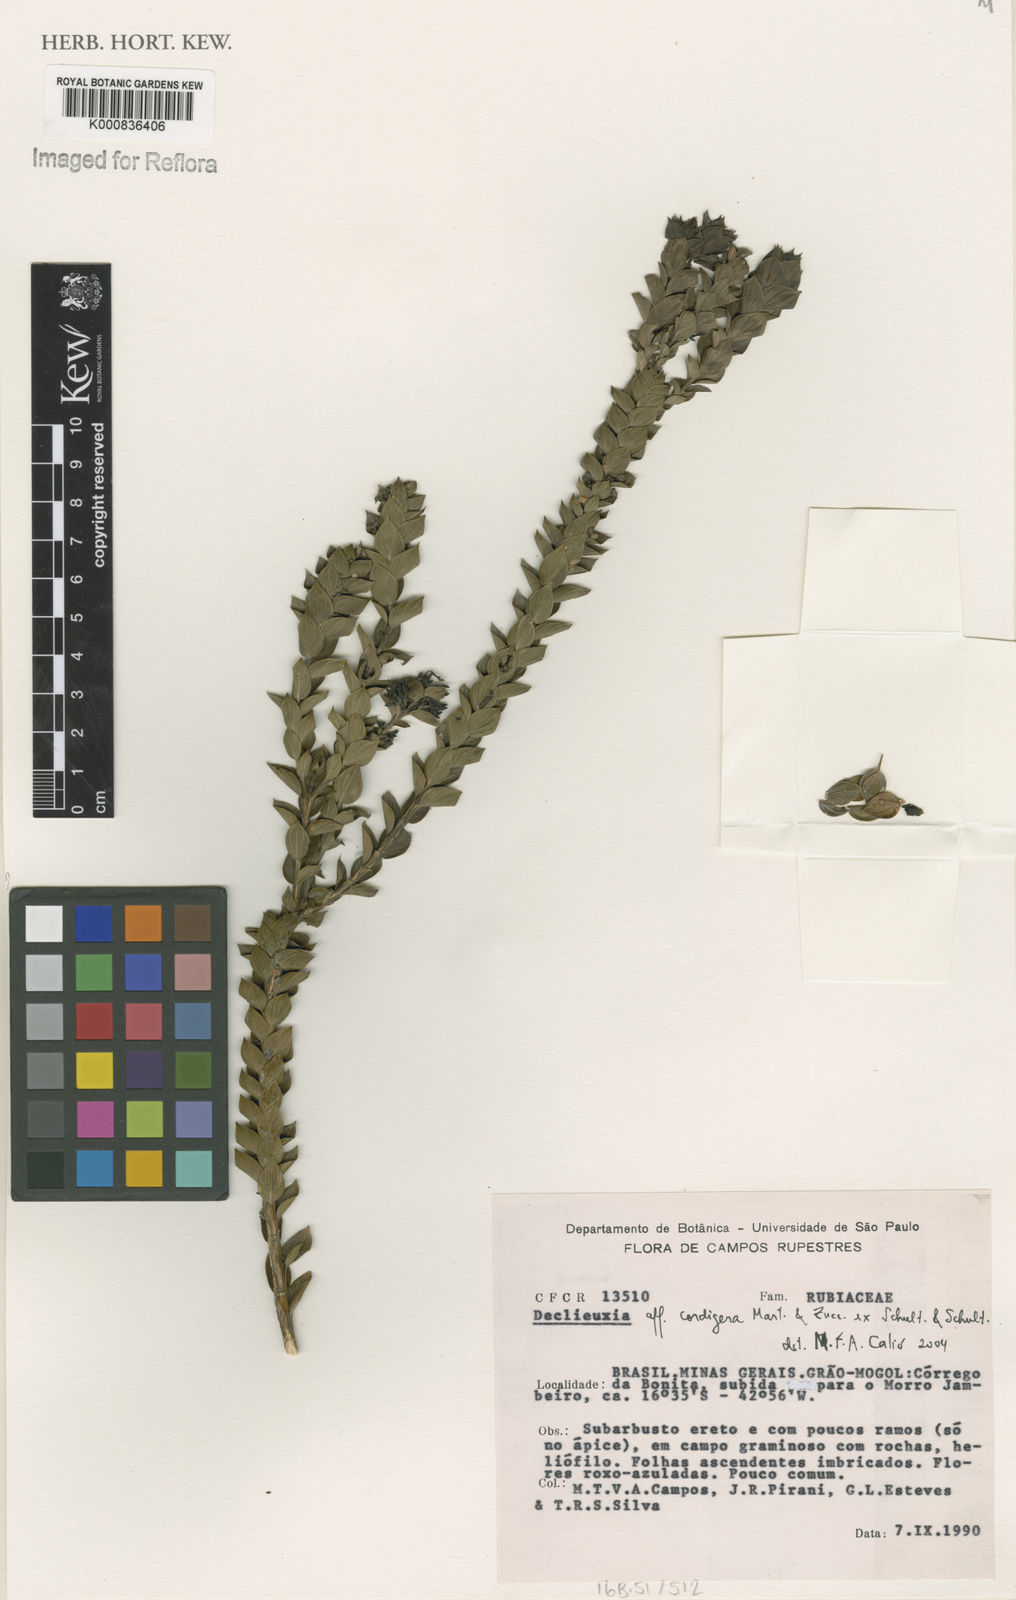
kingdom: Plantae
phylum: Tracheophyta
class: Magnoliopsida
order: Gentianales
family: Rubiaceae
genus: Declieuxia
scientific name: Declieuxia
